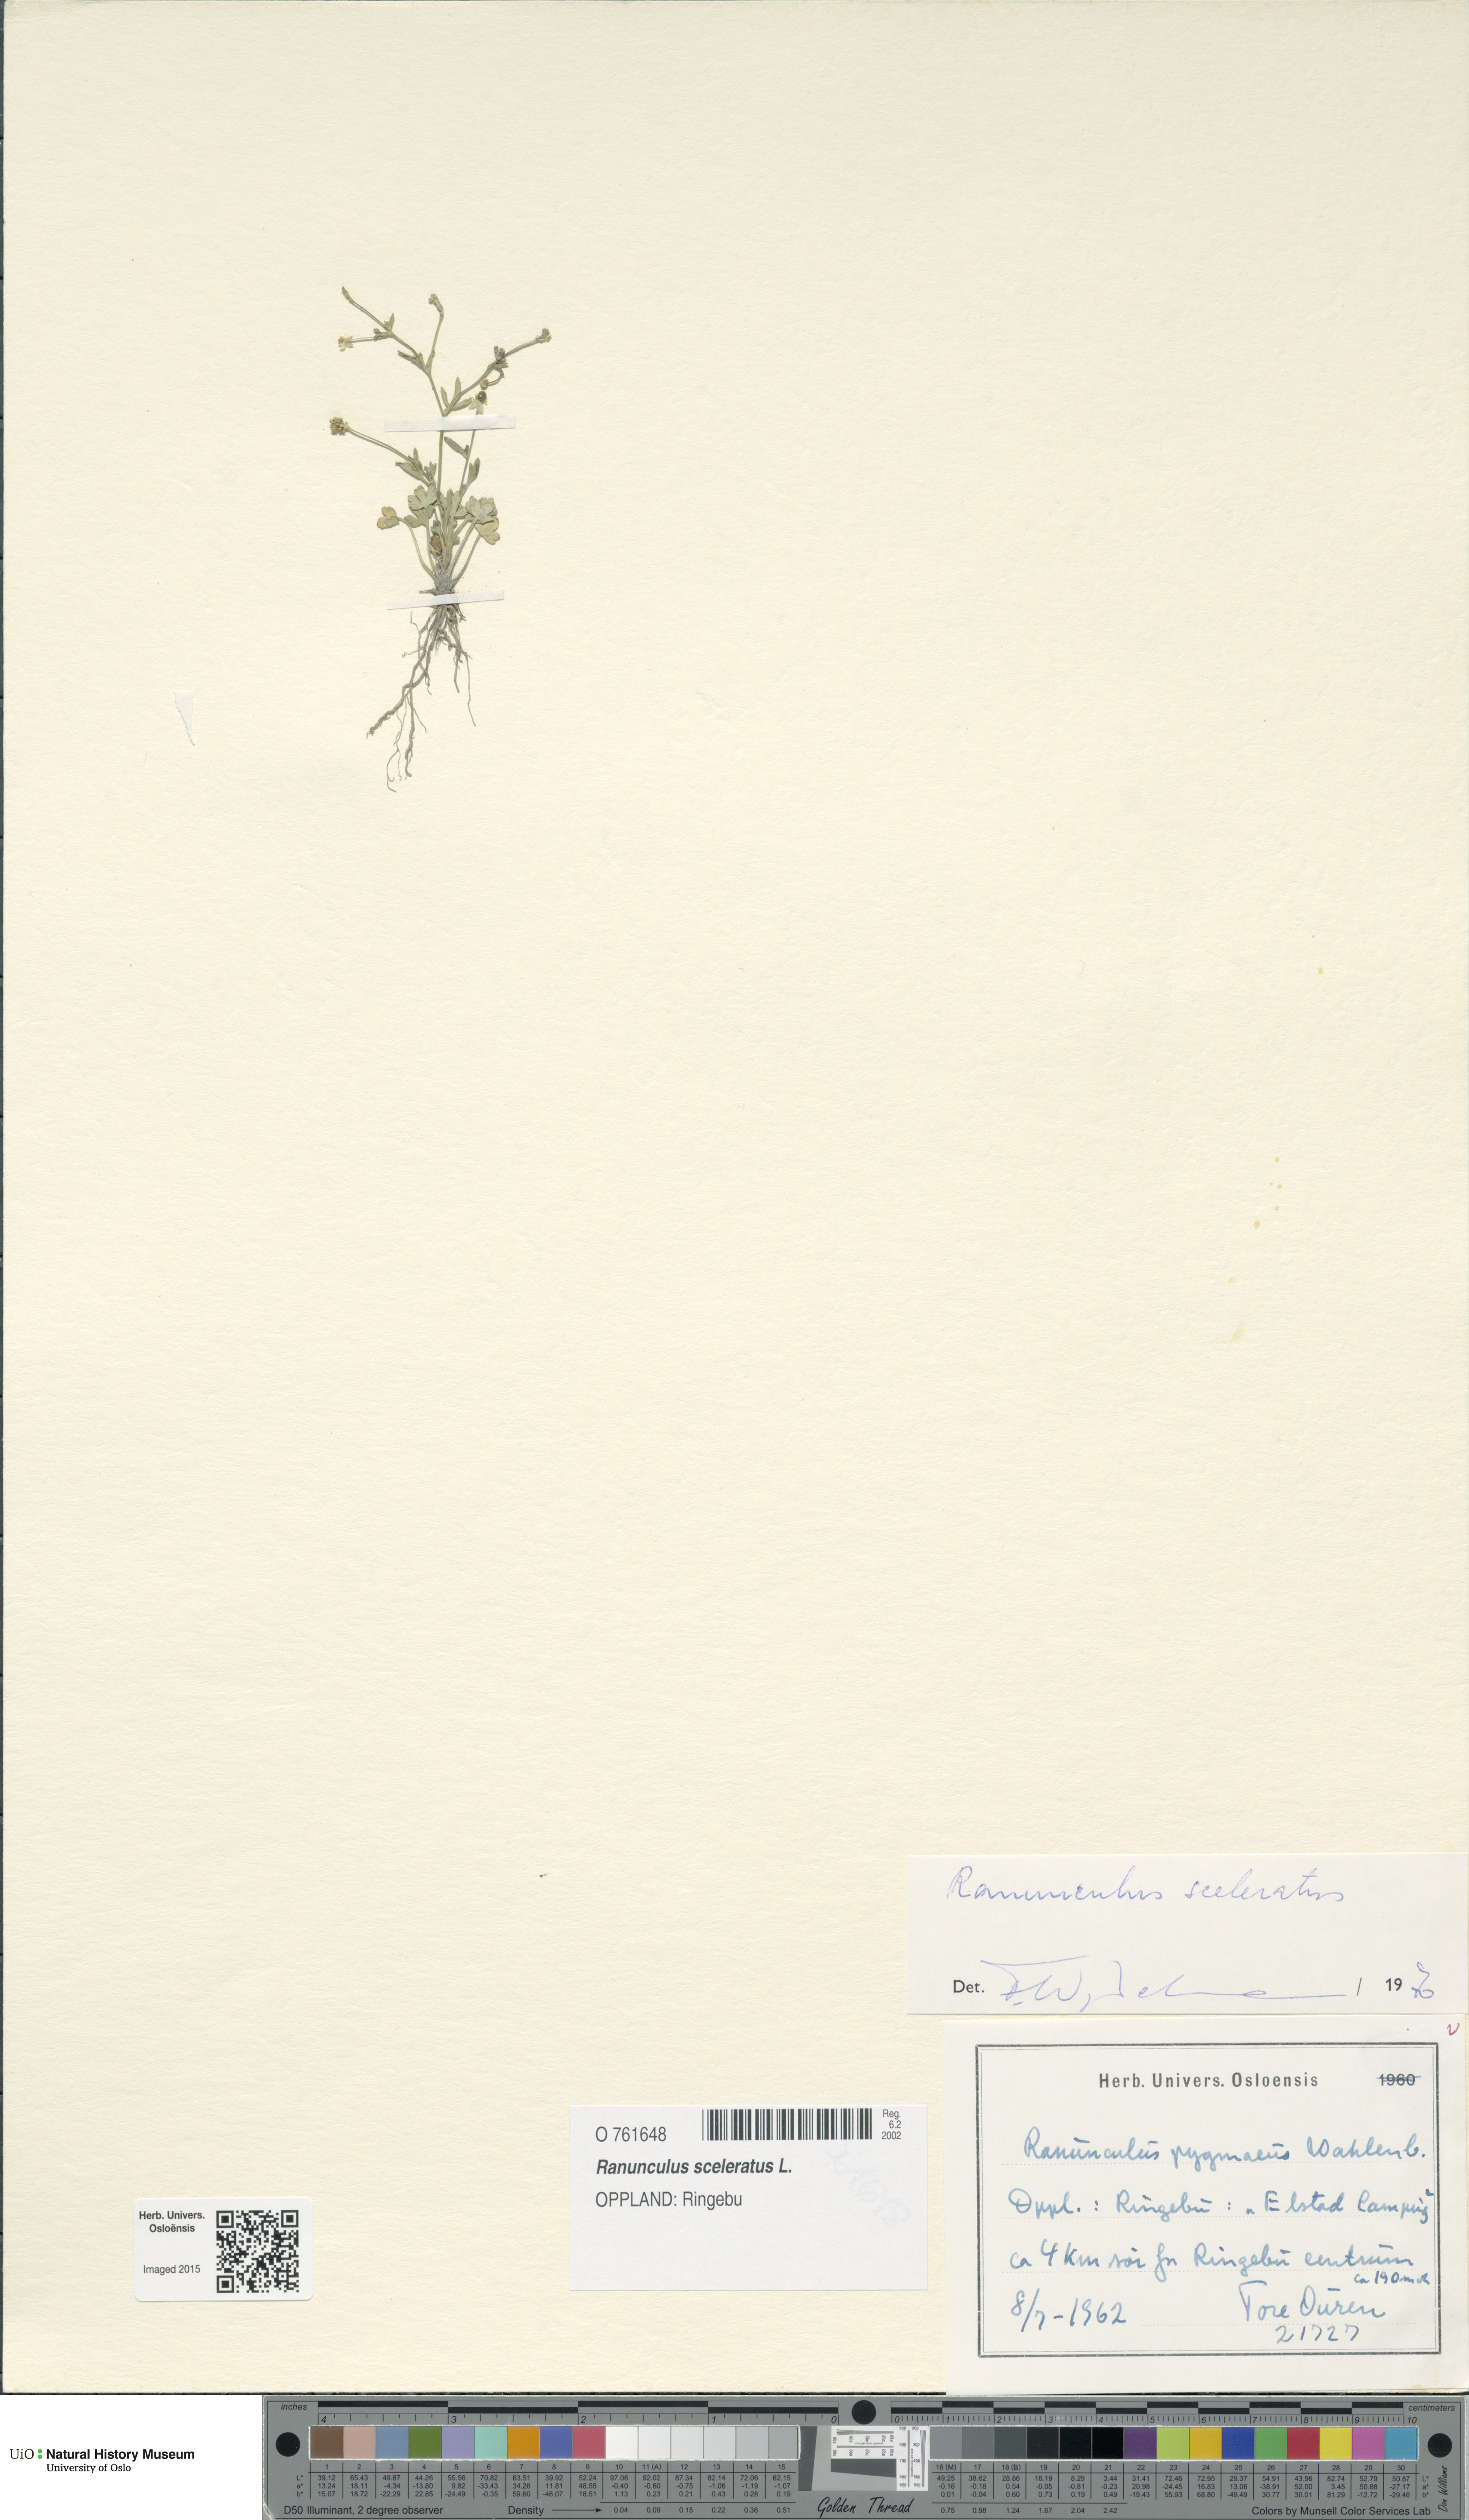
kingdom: Plantae
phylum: Tracheophyta
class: Magnoliopsida
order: Ranunculales
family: Ranunculaceae
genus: Ranunculus
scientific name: Ranunculus sceleratus
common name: Celery-leaved buttercup
